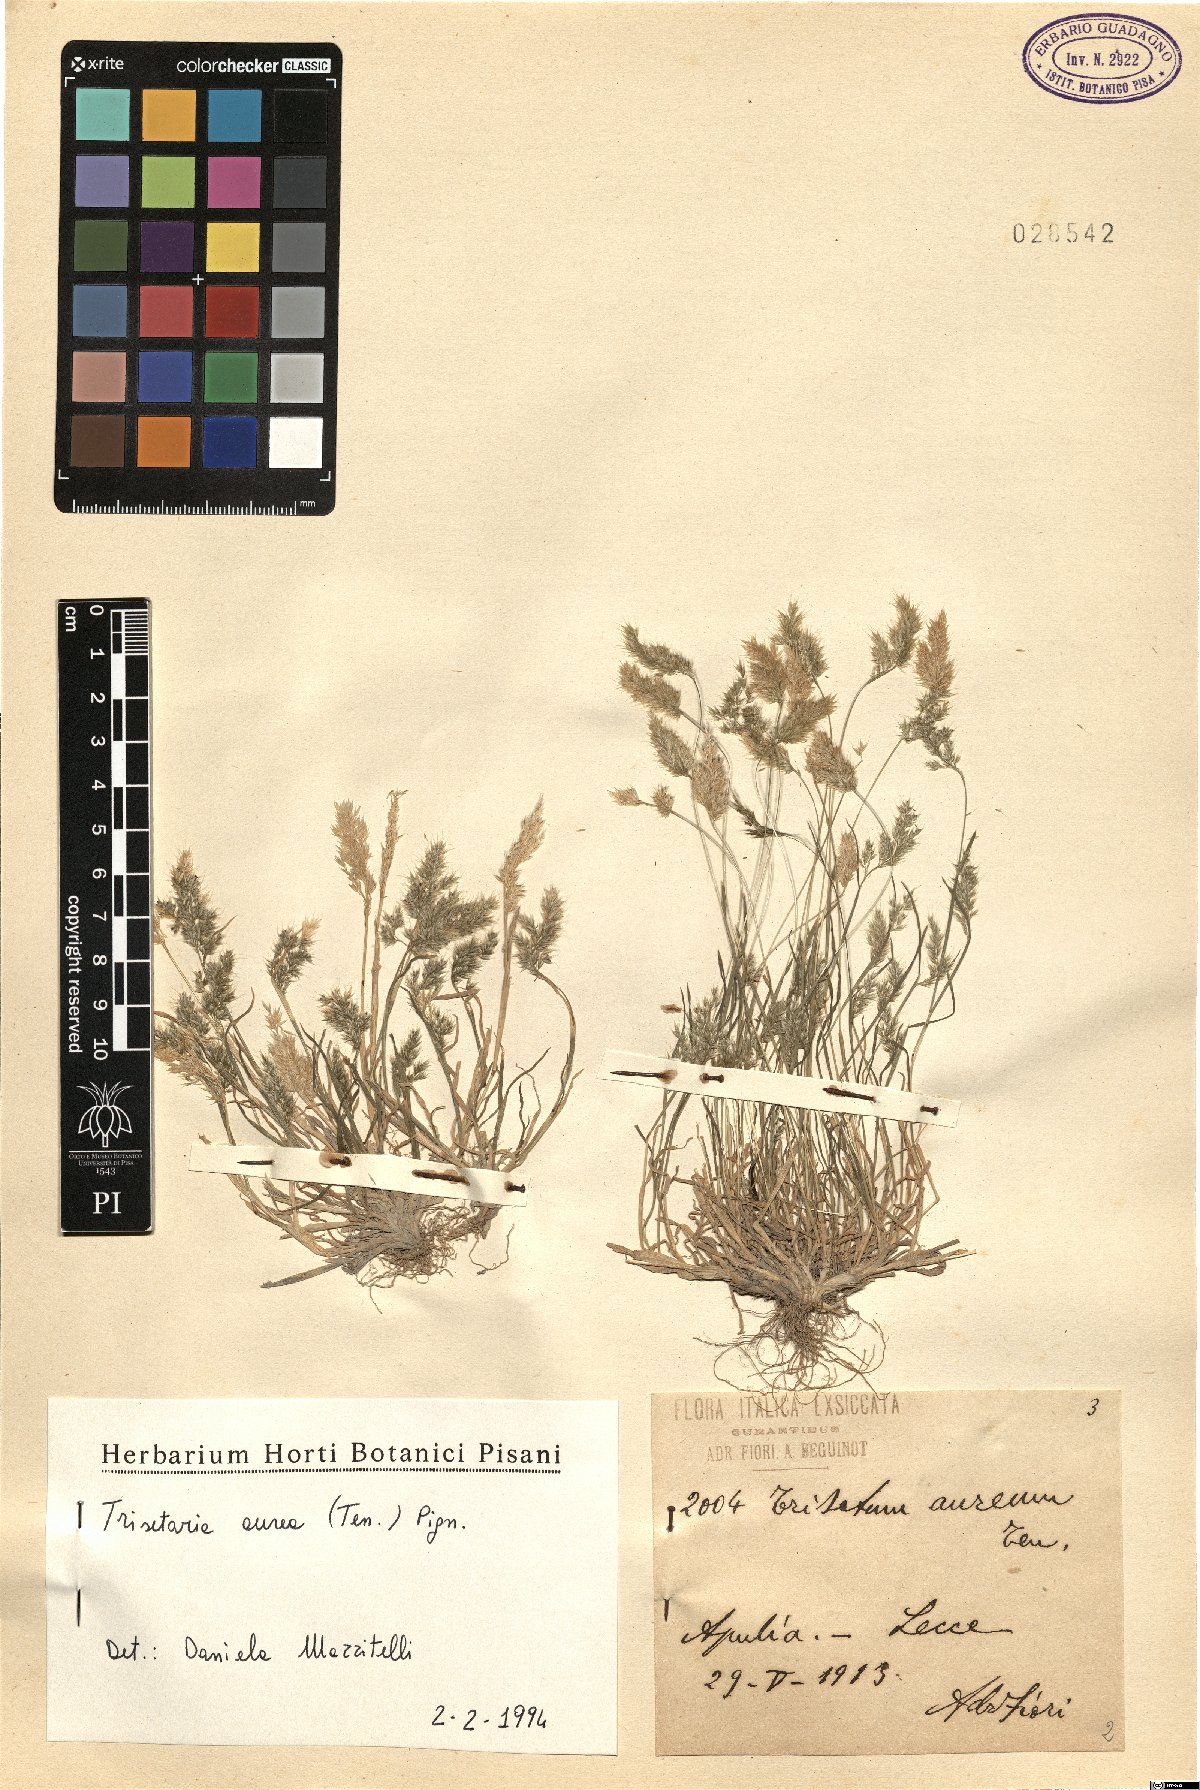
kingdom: Plantae
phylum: Tracheophyta
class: Liliopsida
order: Poales
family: Poaceae
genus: Trisetaria
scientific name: Trisetaria aurea
